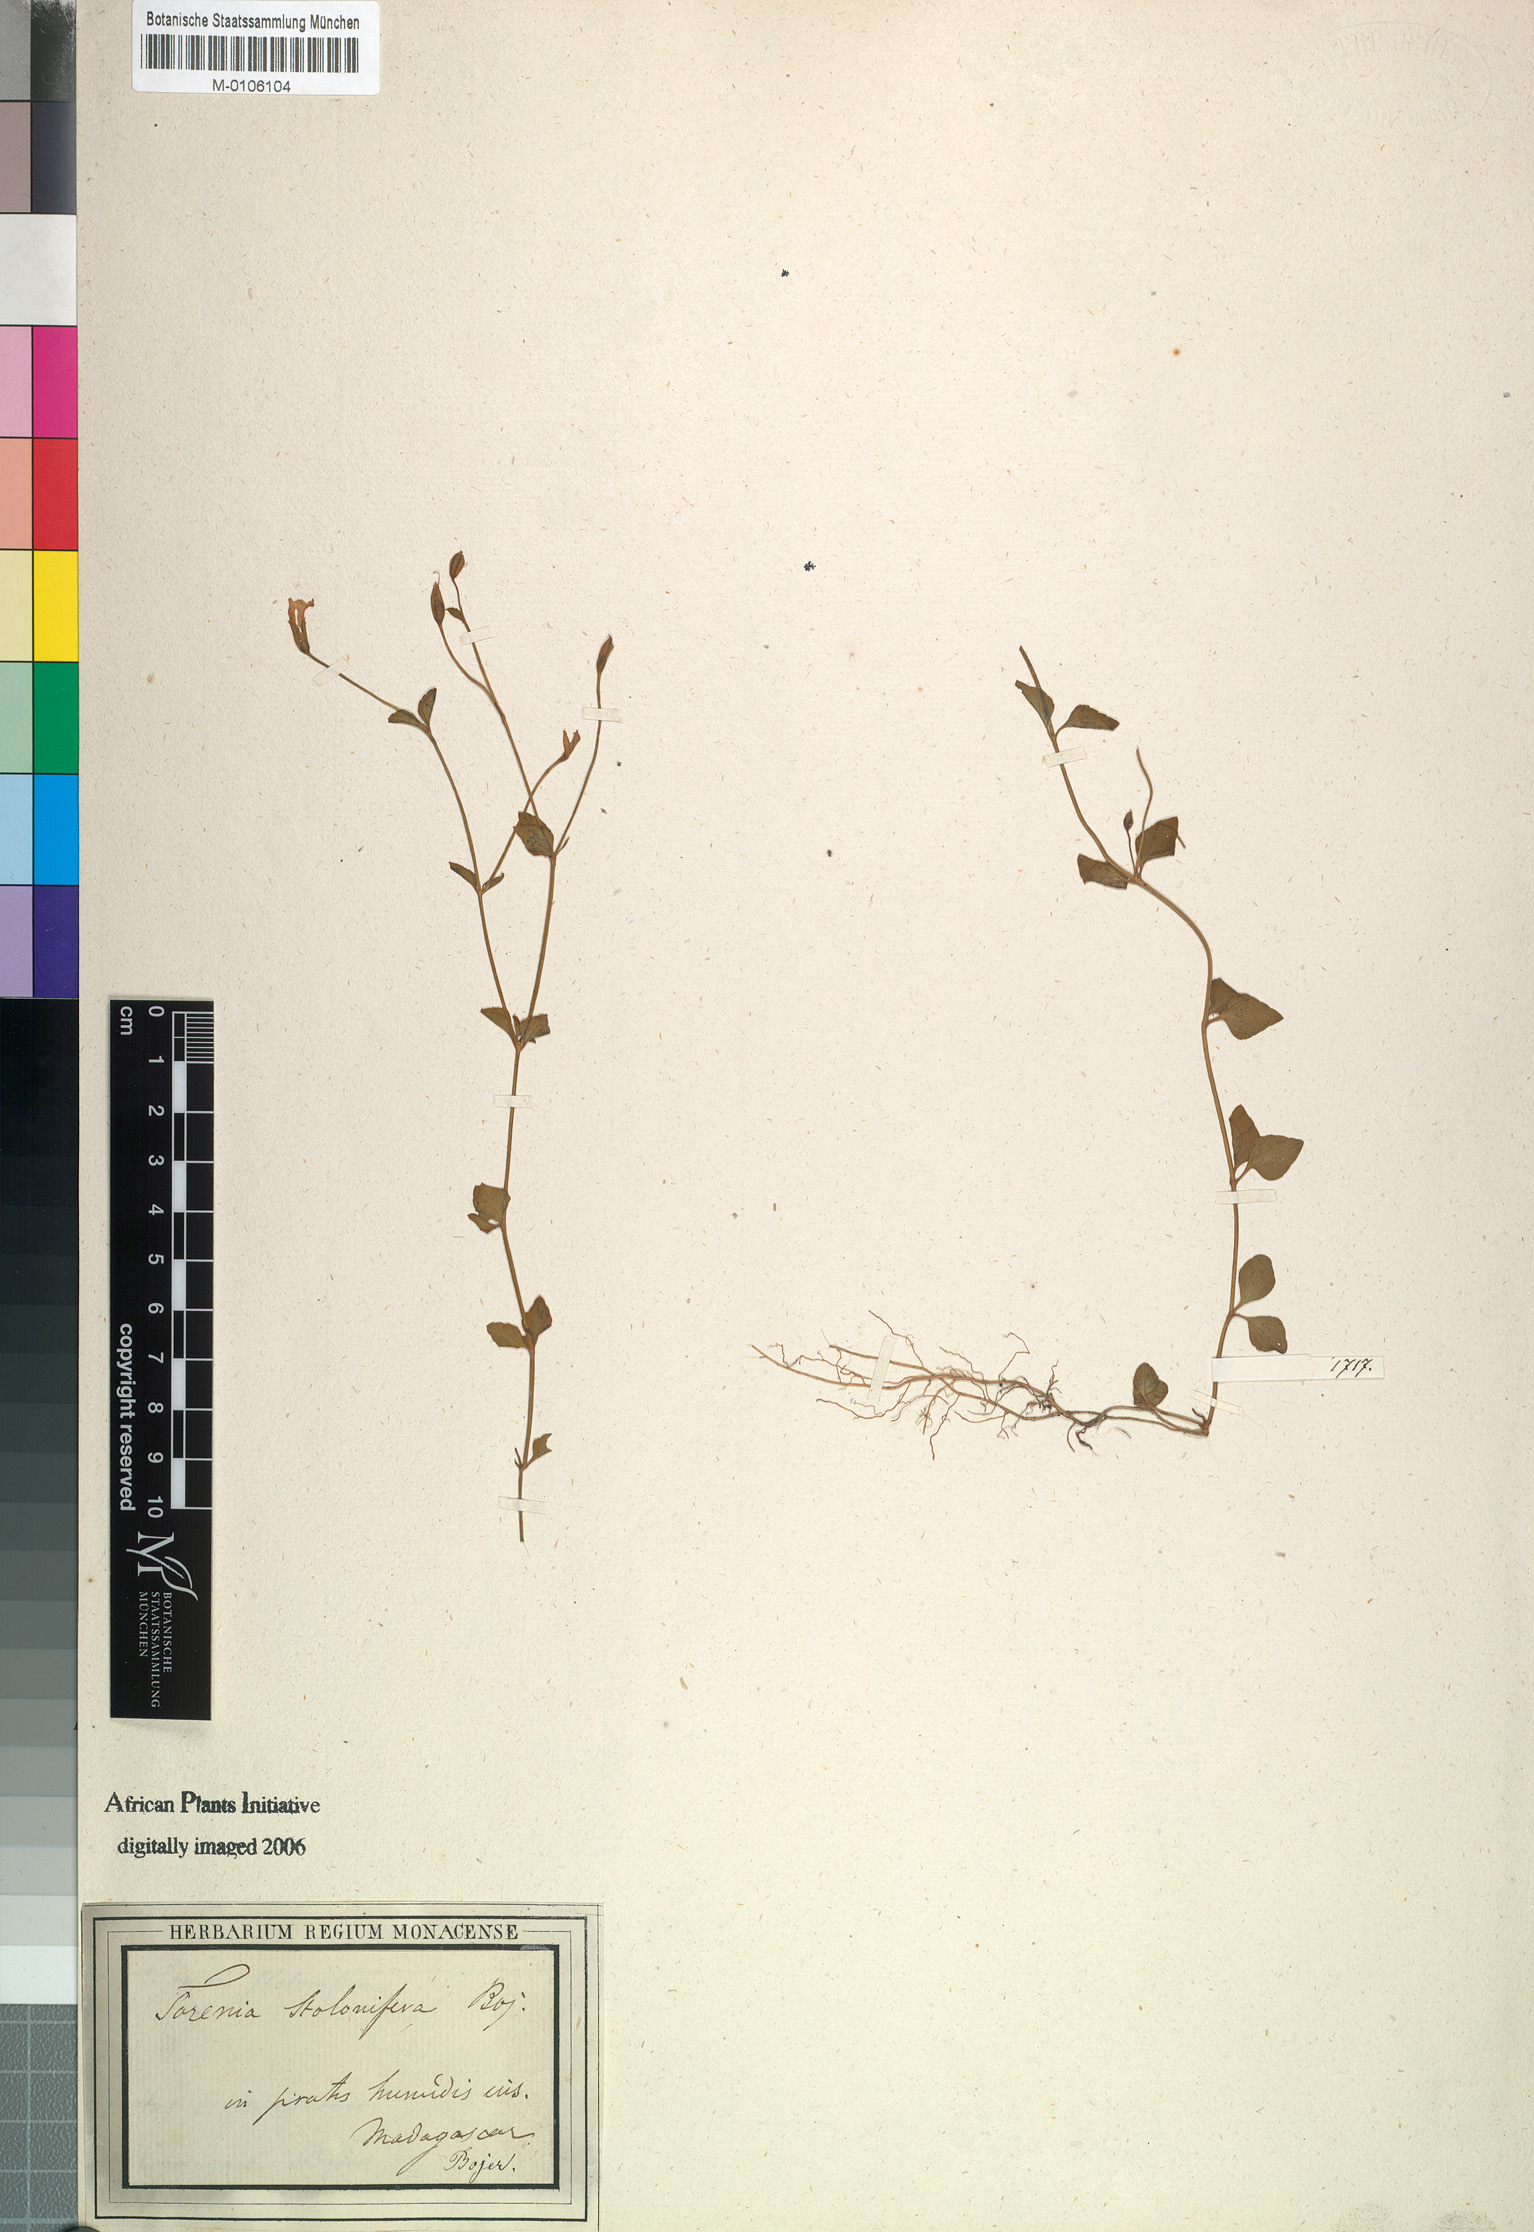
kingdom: Plantae
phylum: Tracheophyta
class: Magnoliopsida
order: Lamiales
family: Linderniaceae
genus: Torenia
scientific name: Torenia stolonifera
